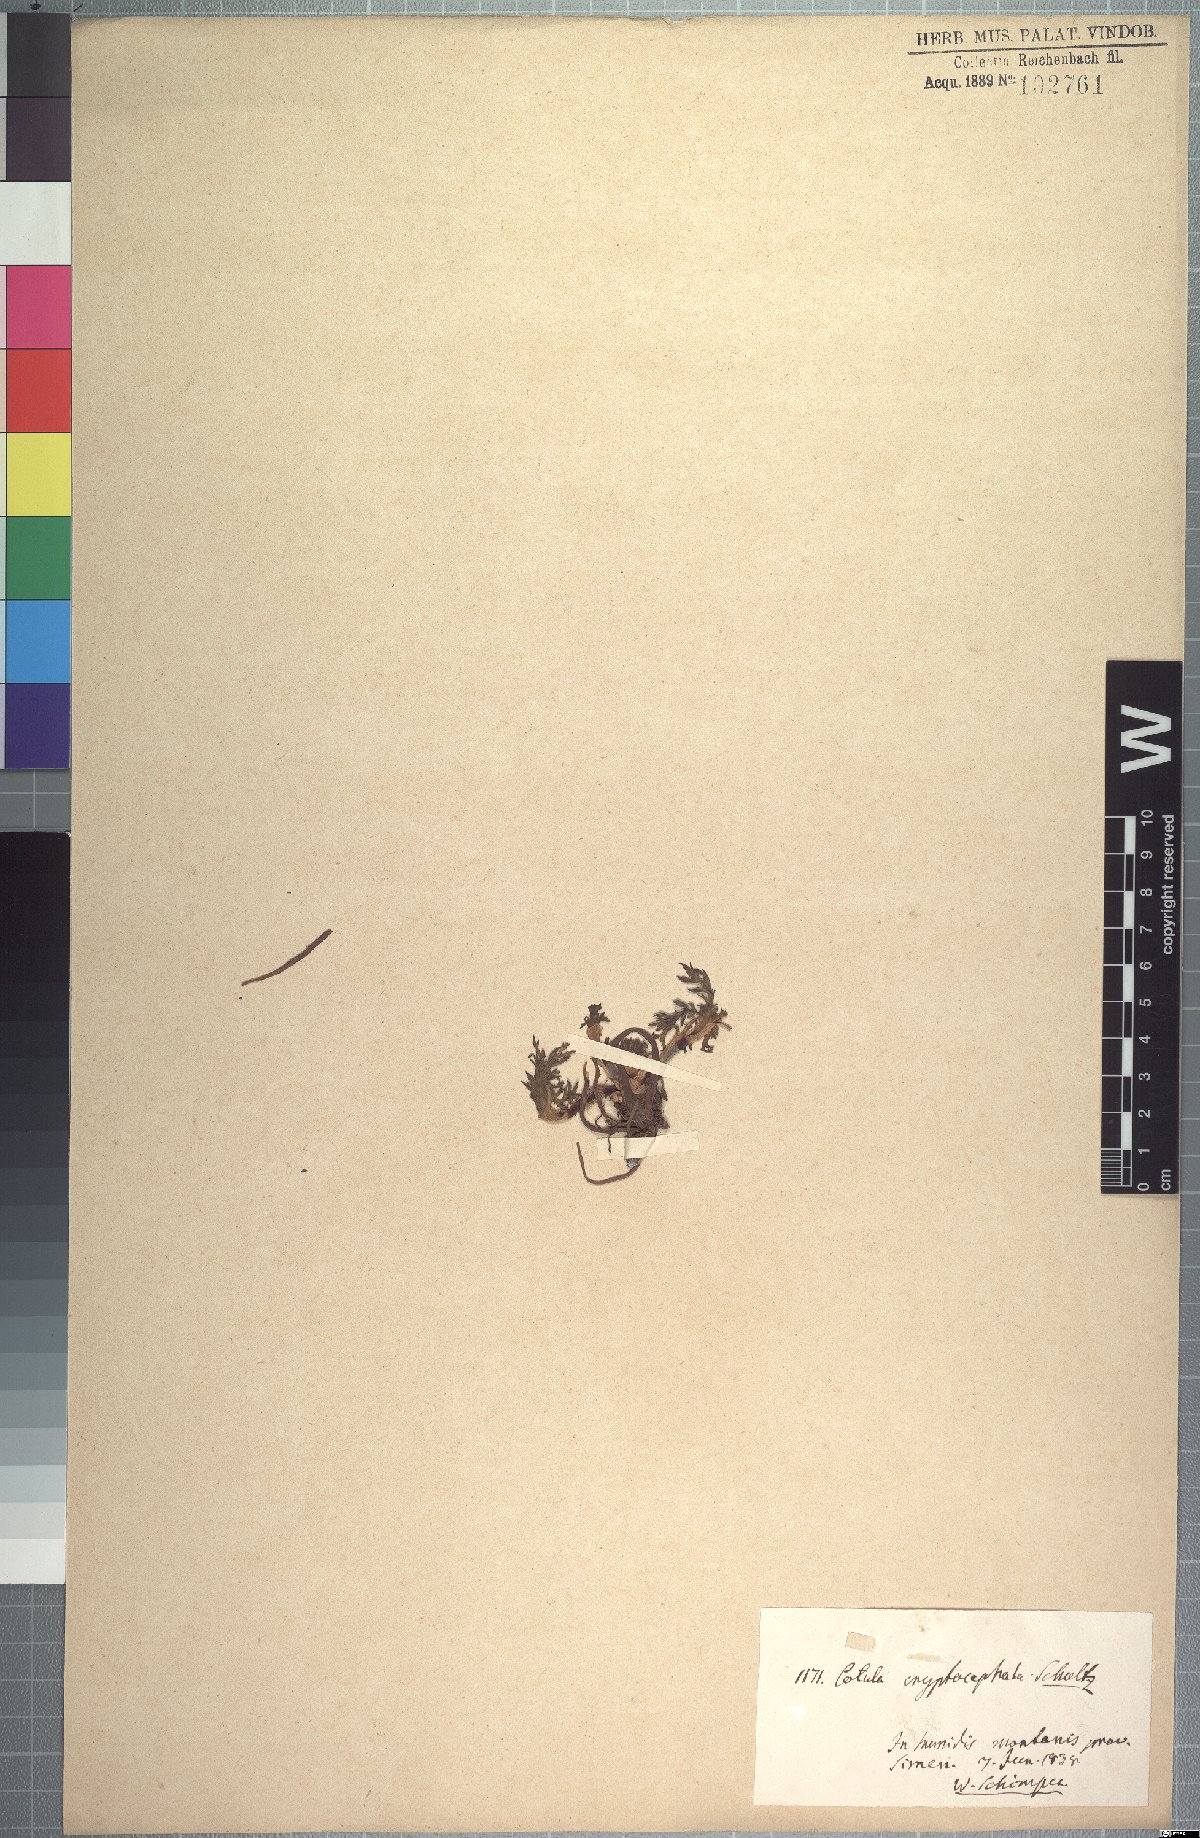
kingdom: Plantae
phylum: Tracheophyta
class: Magnoliopsida
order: Asterales
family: Asteraceae
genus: Cotula
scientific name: Cotula cryptocephala
